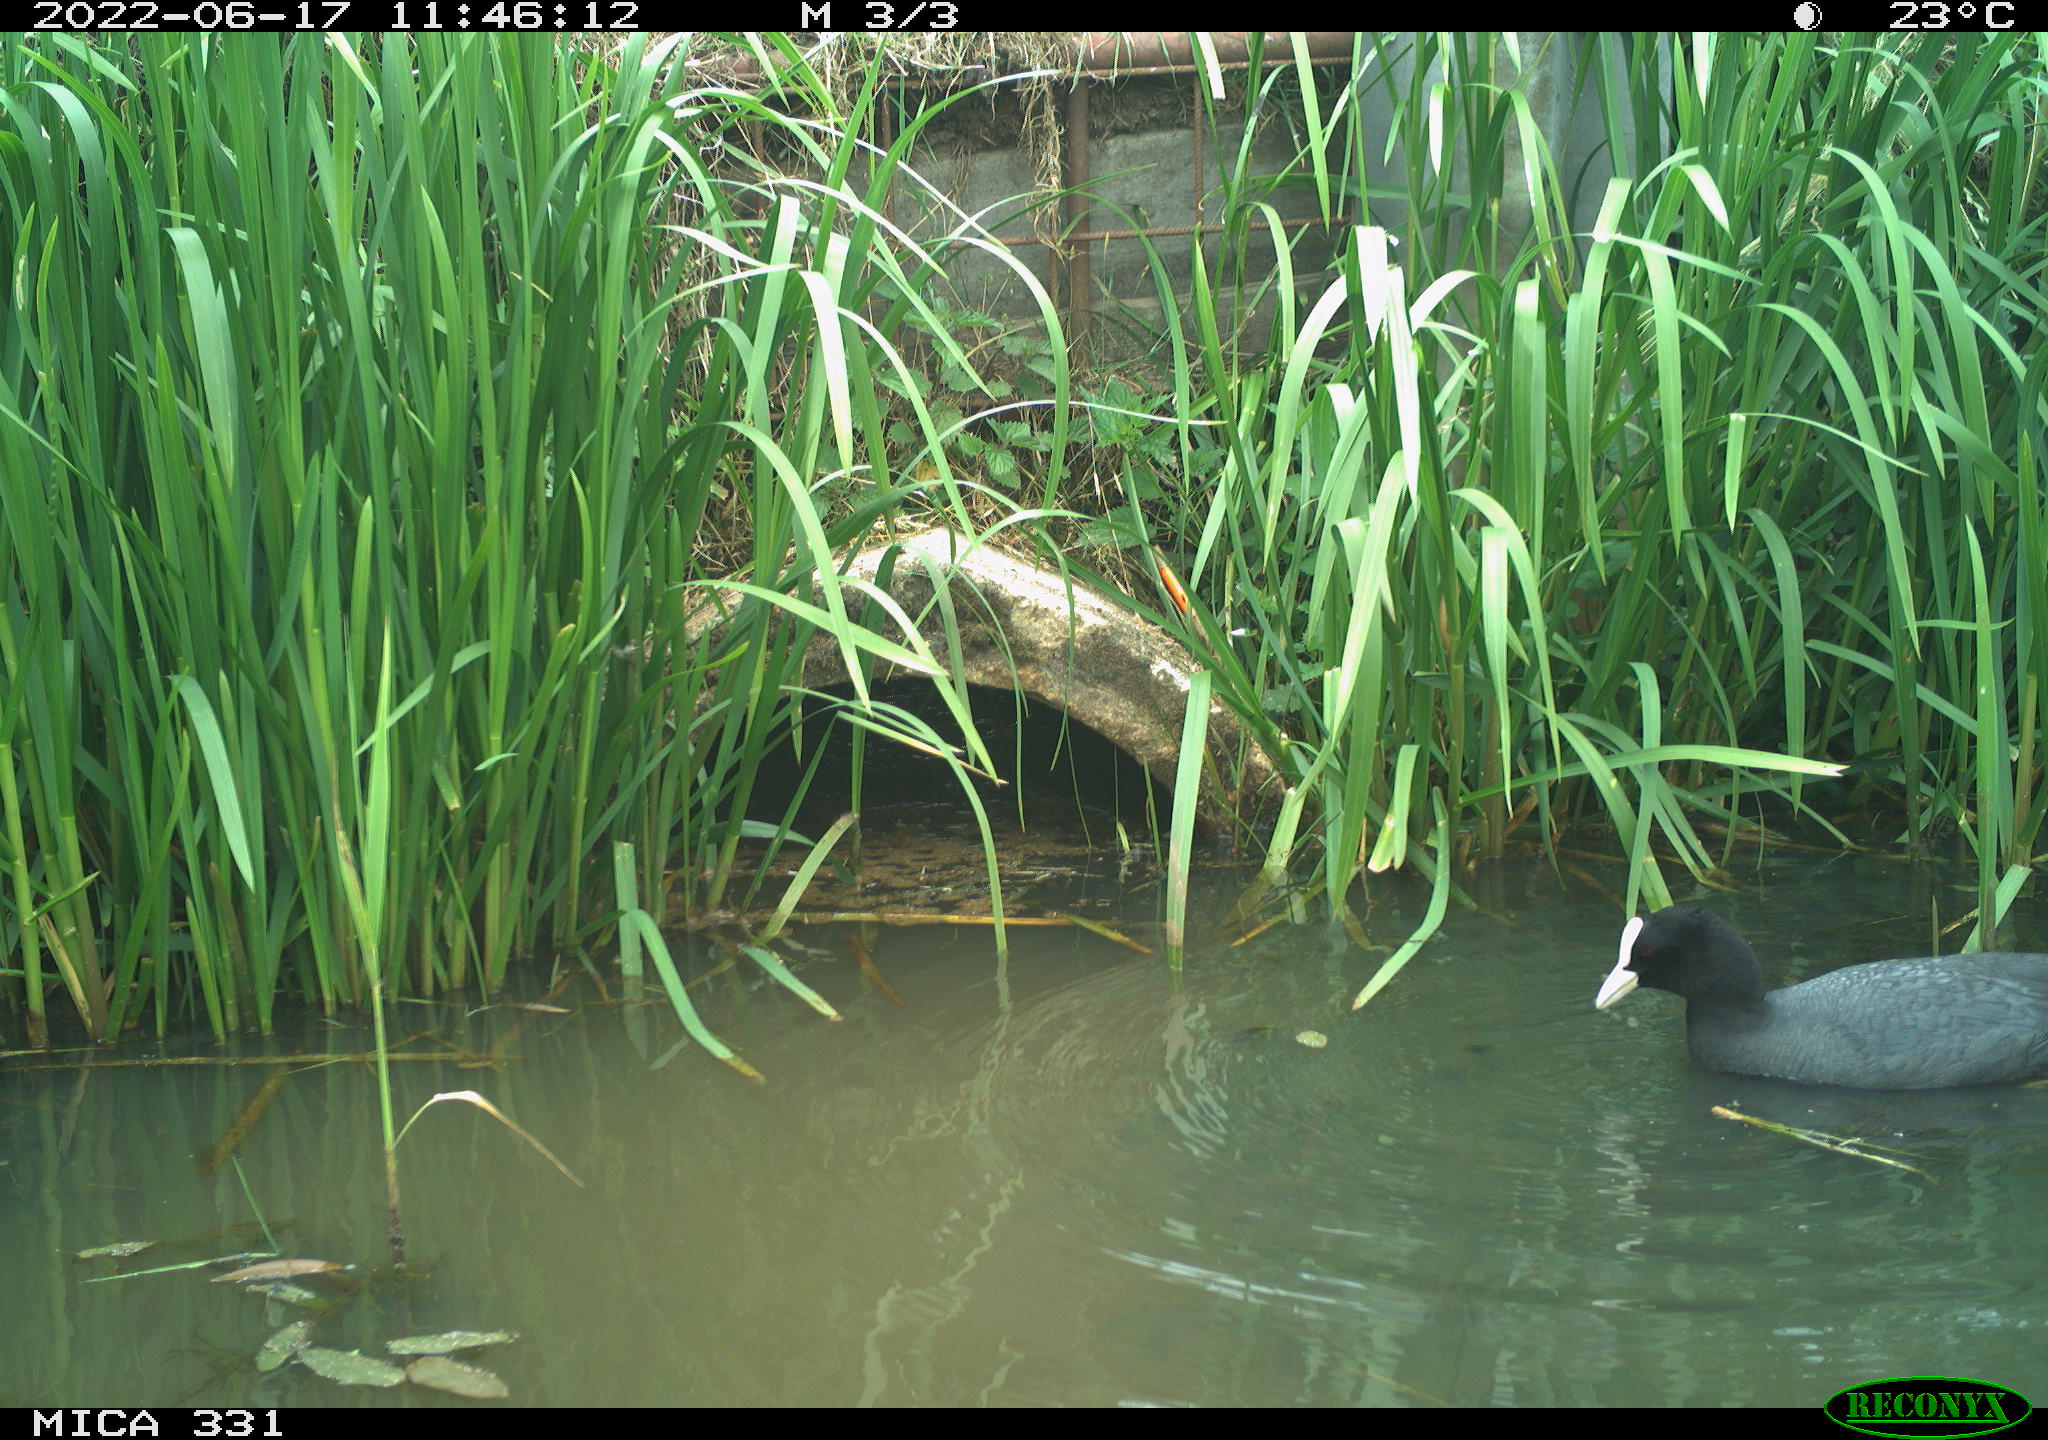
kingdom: Animalia
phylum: Chordata
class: Aves
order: Gruiformes
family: Rallidae
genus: Fulica
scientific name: Fulica atra
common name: Eurasian coot
